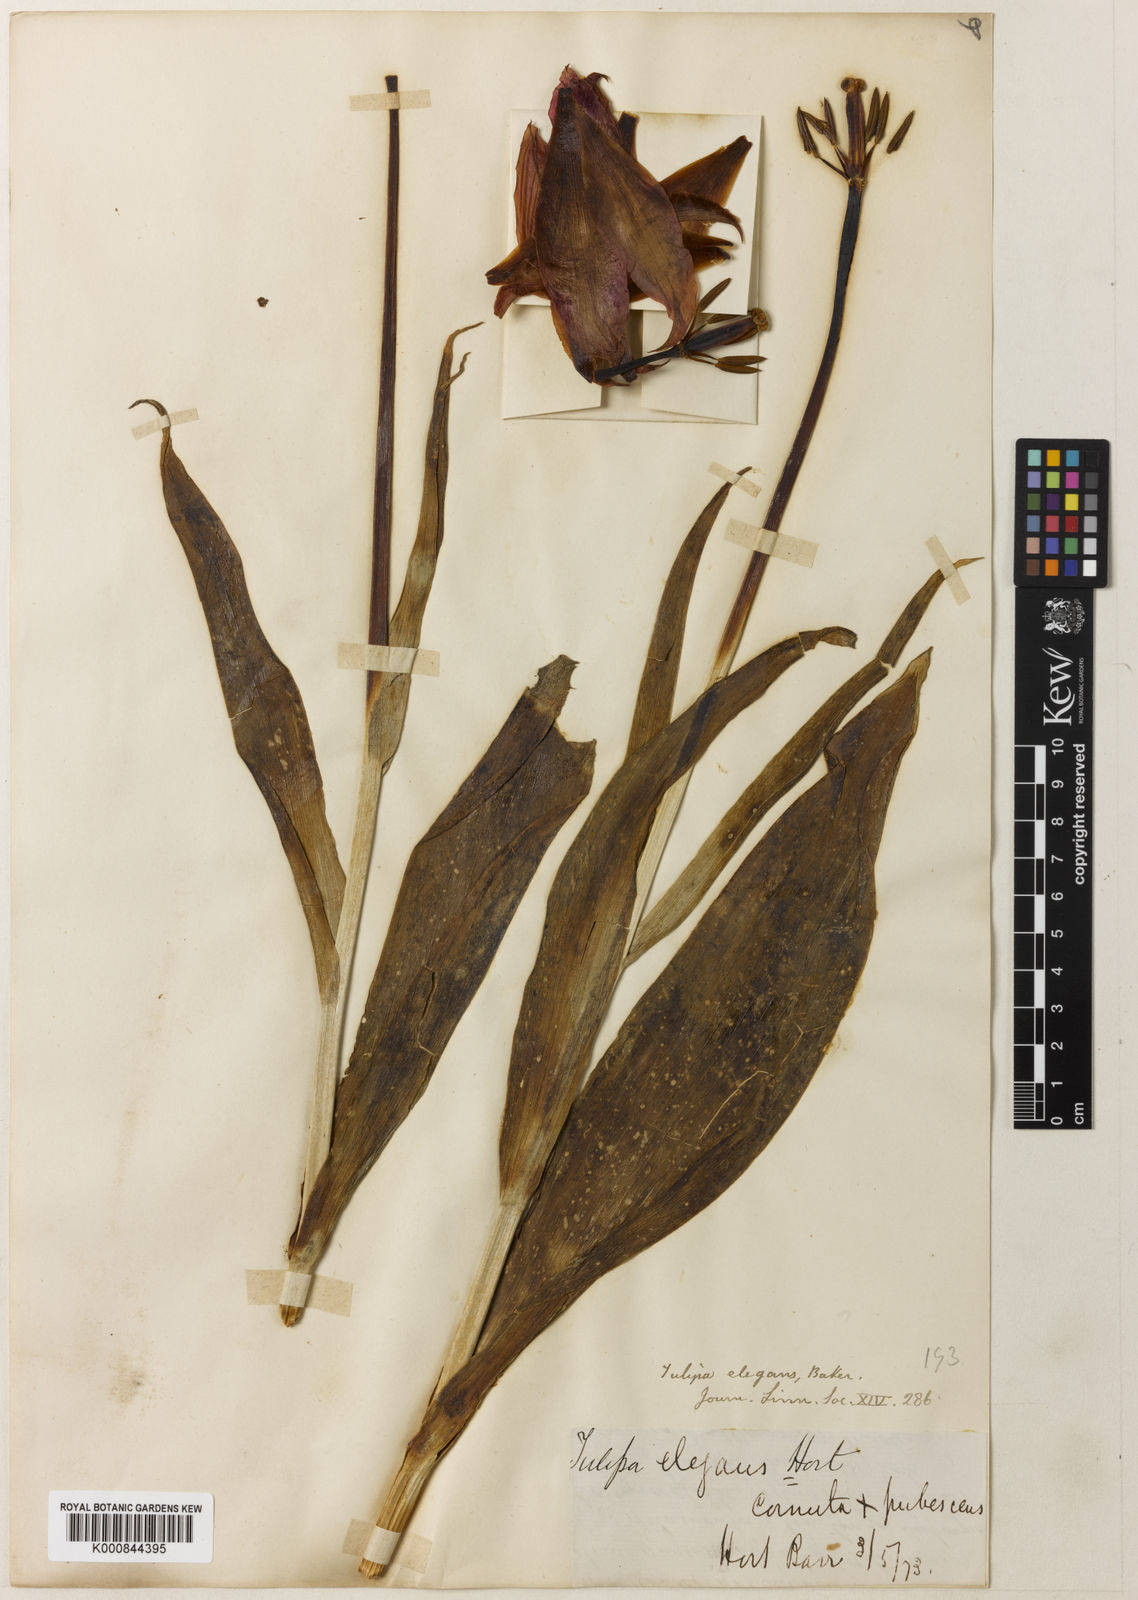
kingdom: Plantae
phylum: Tracheophyta
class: Liliopsida
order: Liliales
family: Liliaceae
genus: Tulipa
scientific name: Tulipa gesneriana
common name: Garden tulip
